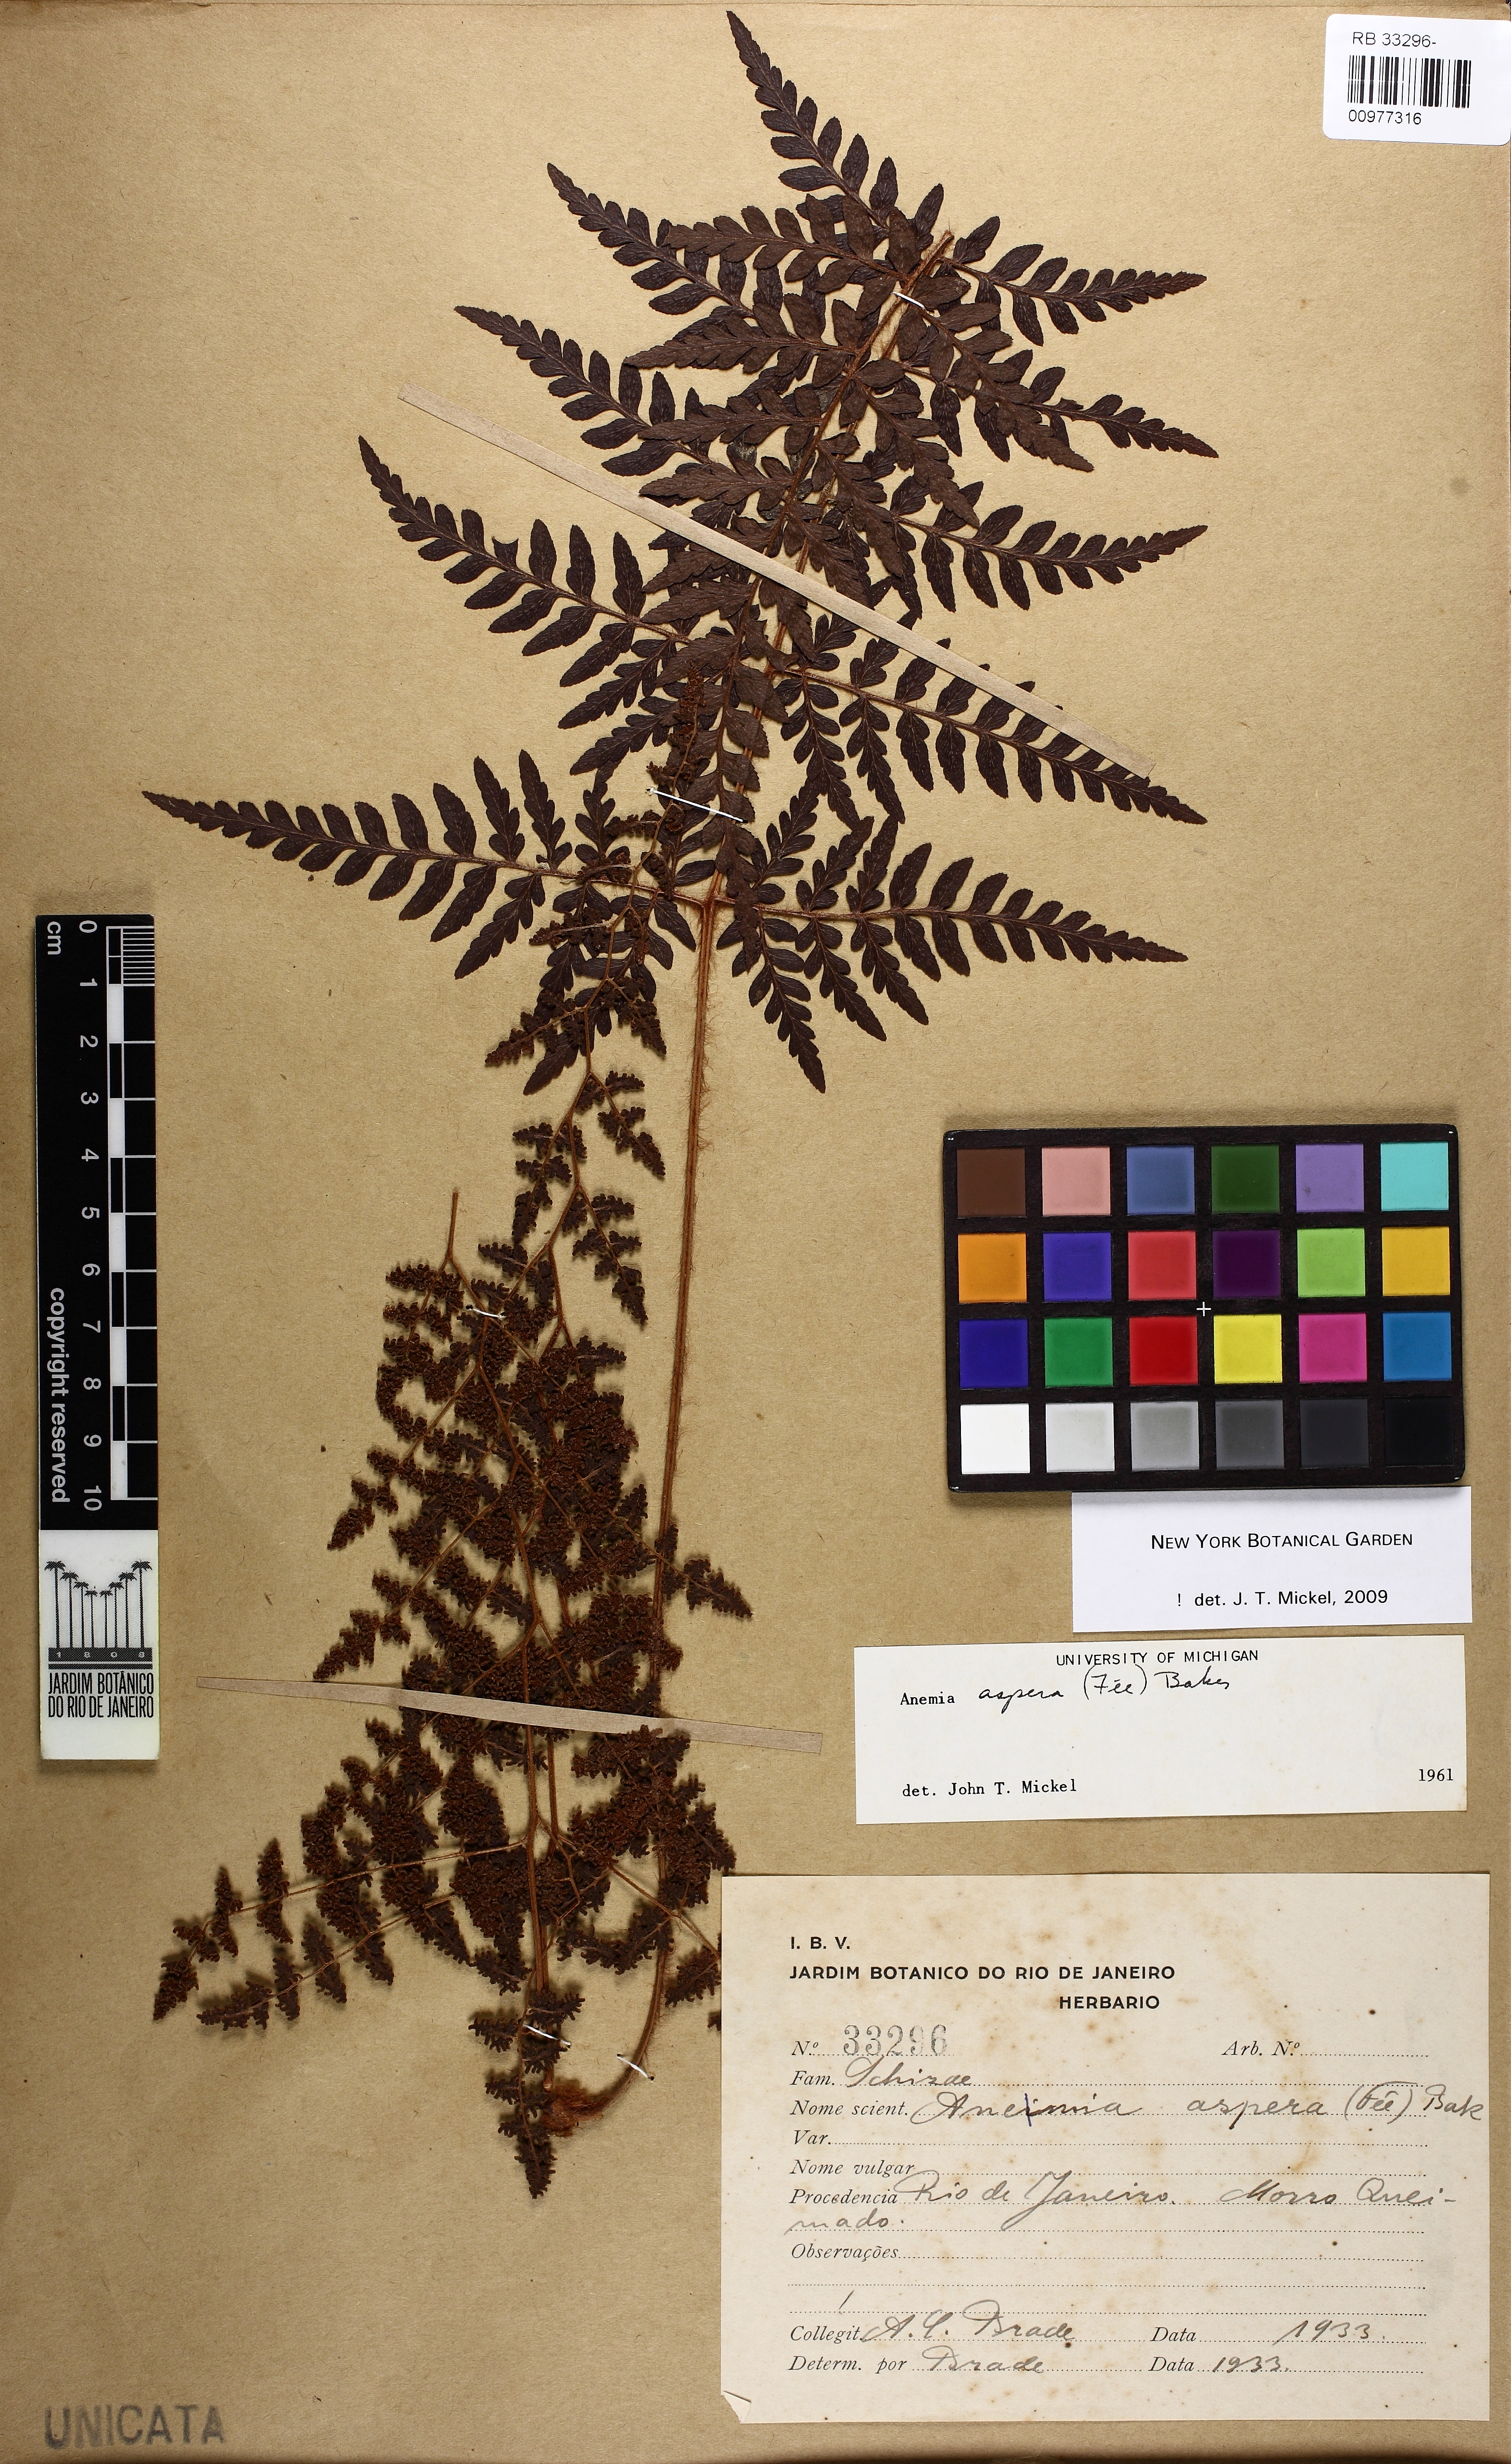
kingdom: Plantae
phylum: Tracheophyta
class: Polypodiopsida
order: Schizaeales
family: Anemiaceae
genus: Anemia
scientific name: Anemia aspera
